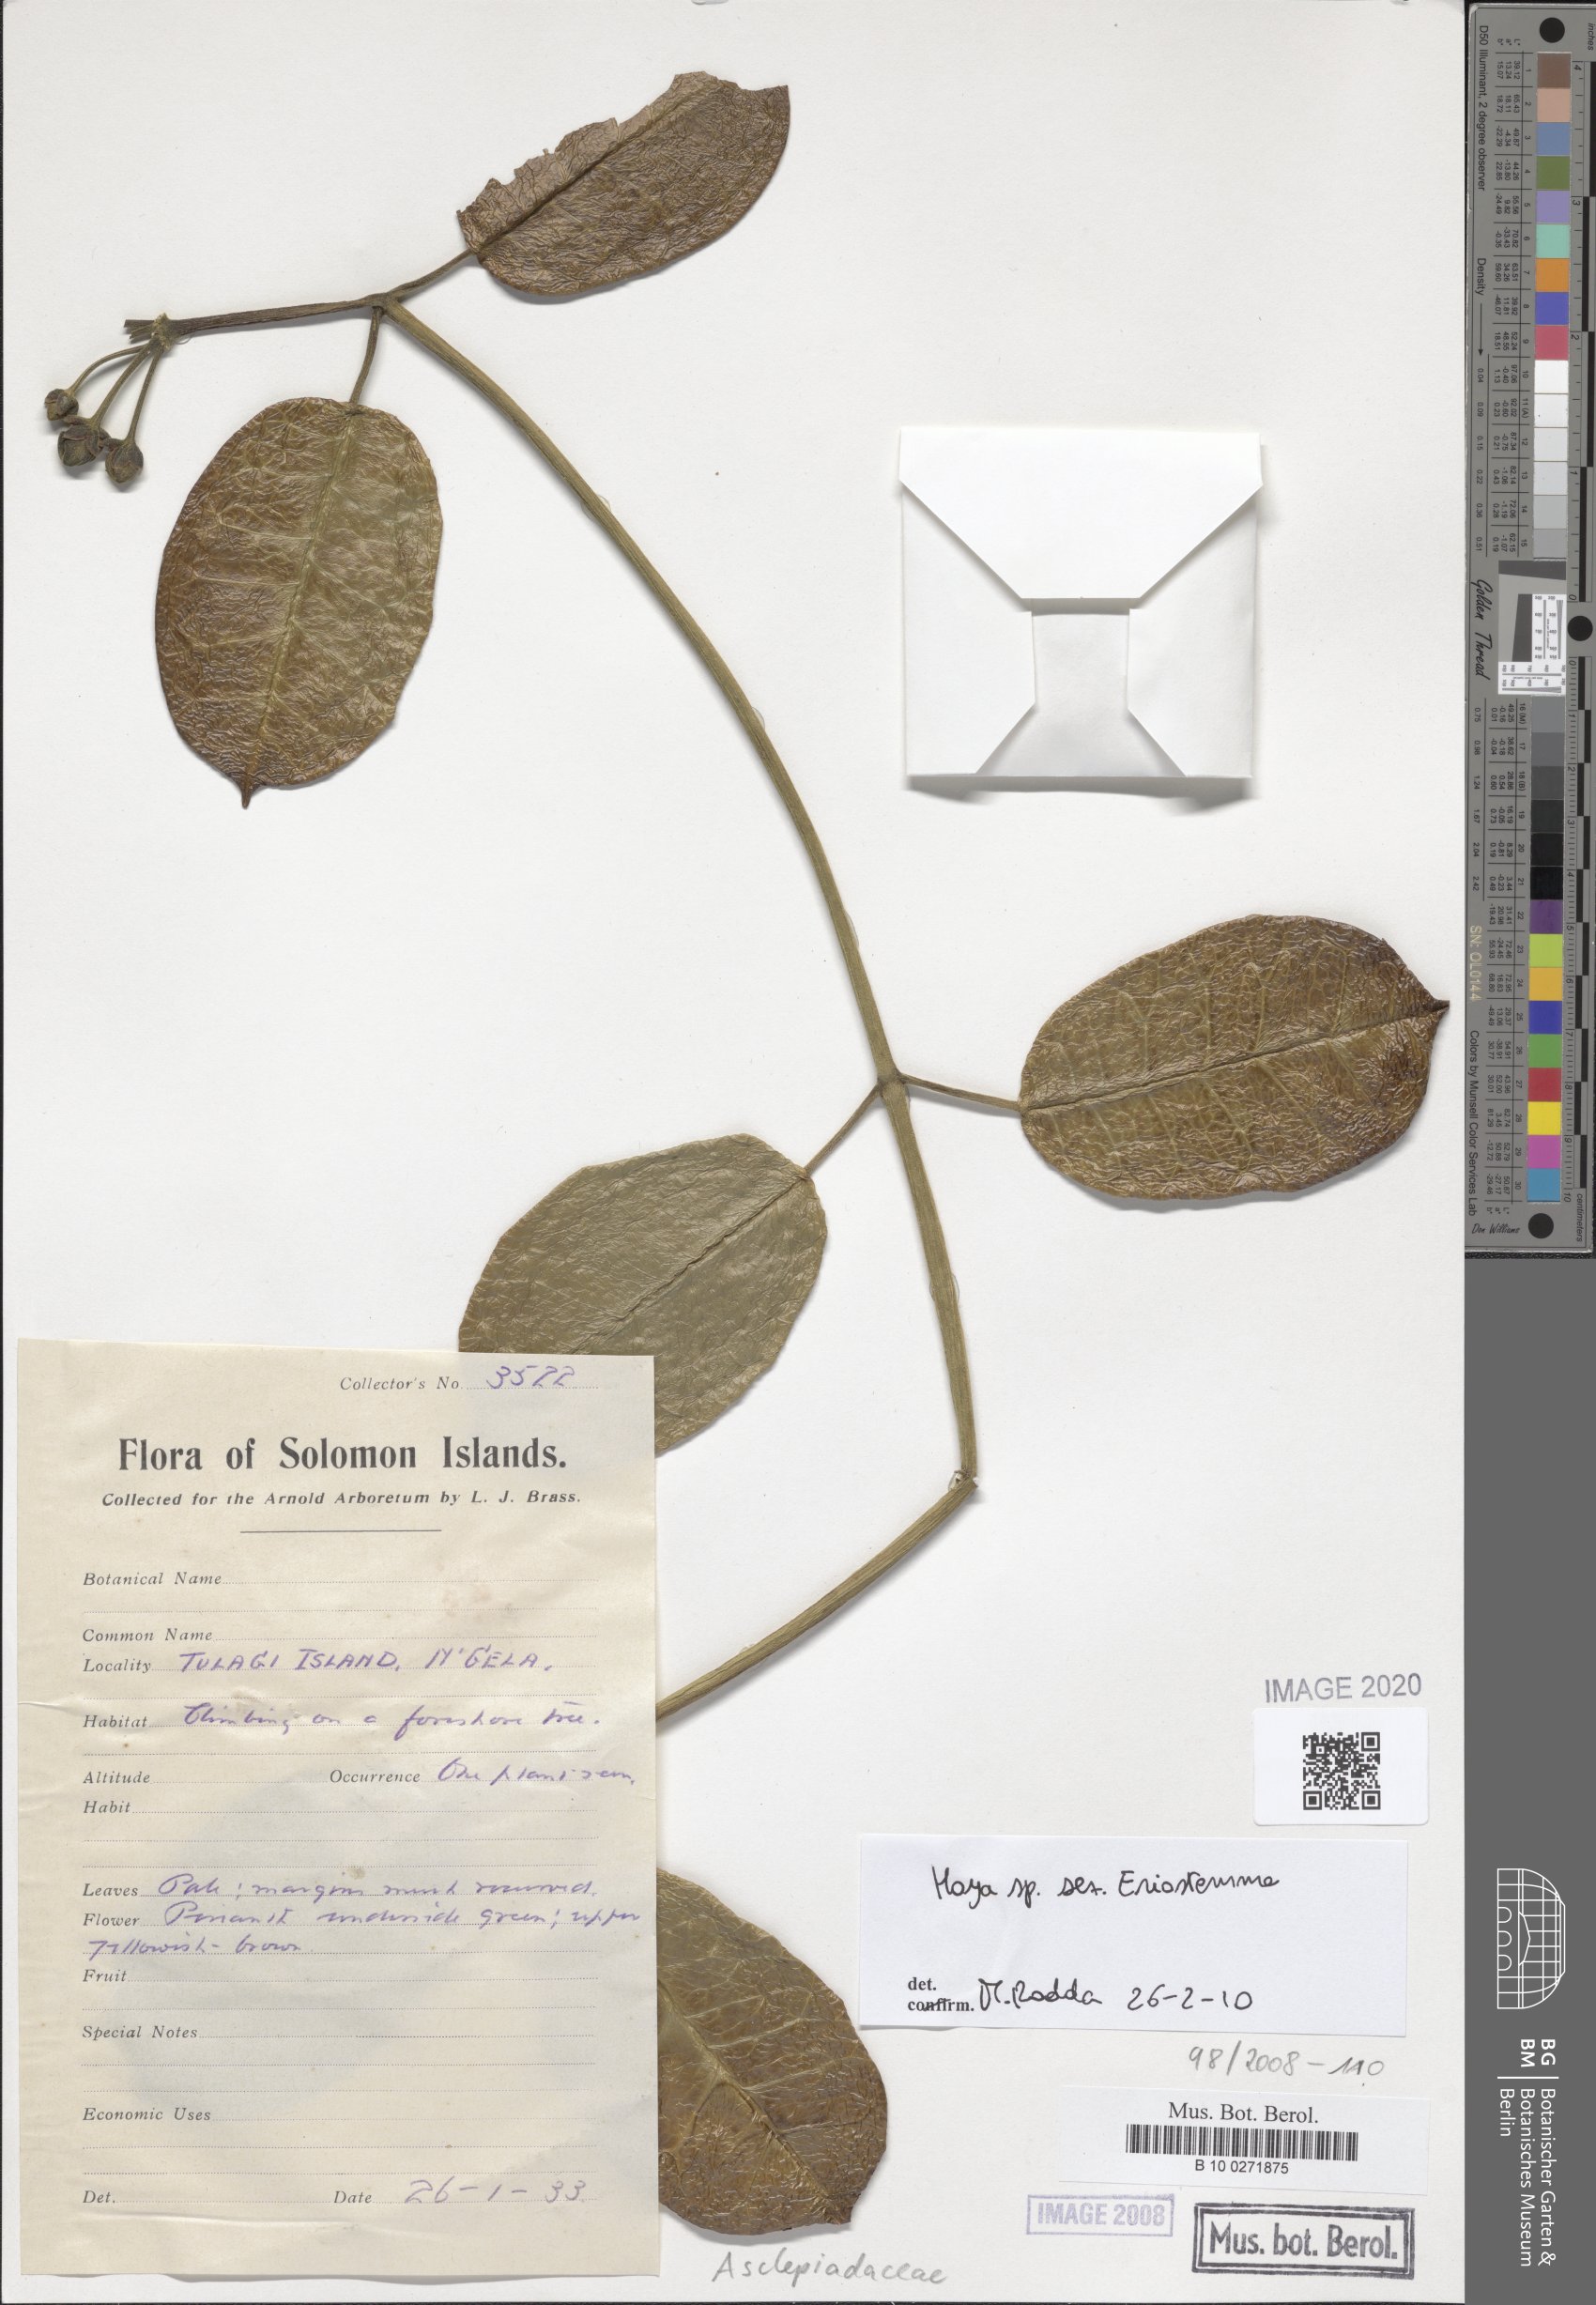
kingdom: Plantae
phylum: Tracheophyta
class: Magnoliopsida
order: Gentianales
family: Asclepiadaceae
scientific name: Asclepiadaceae
